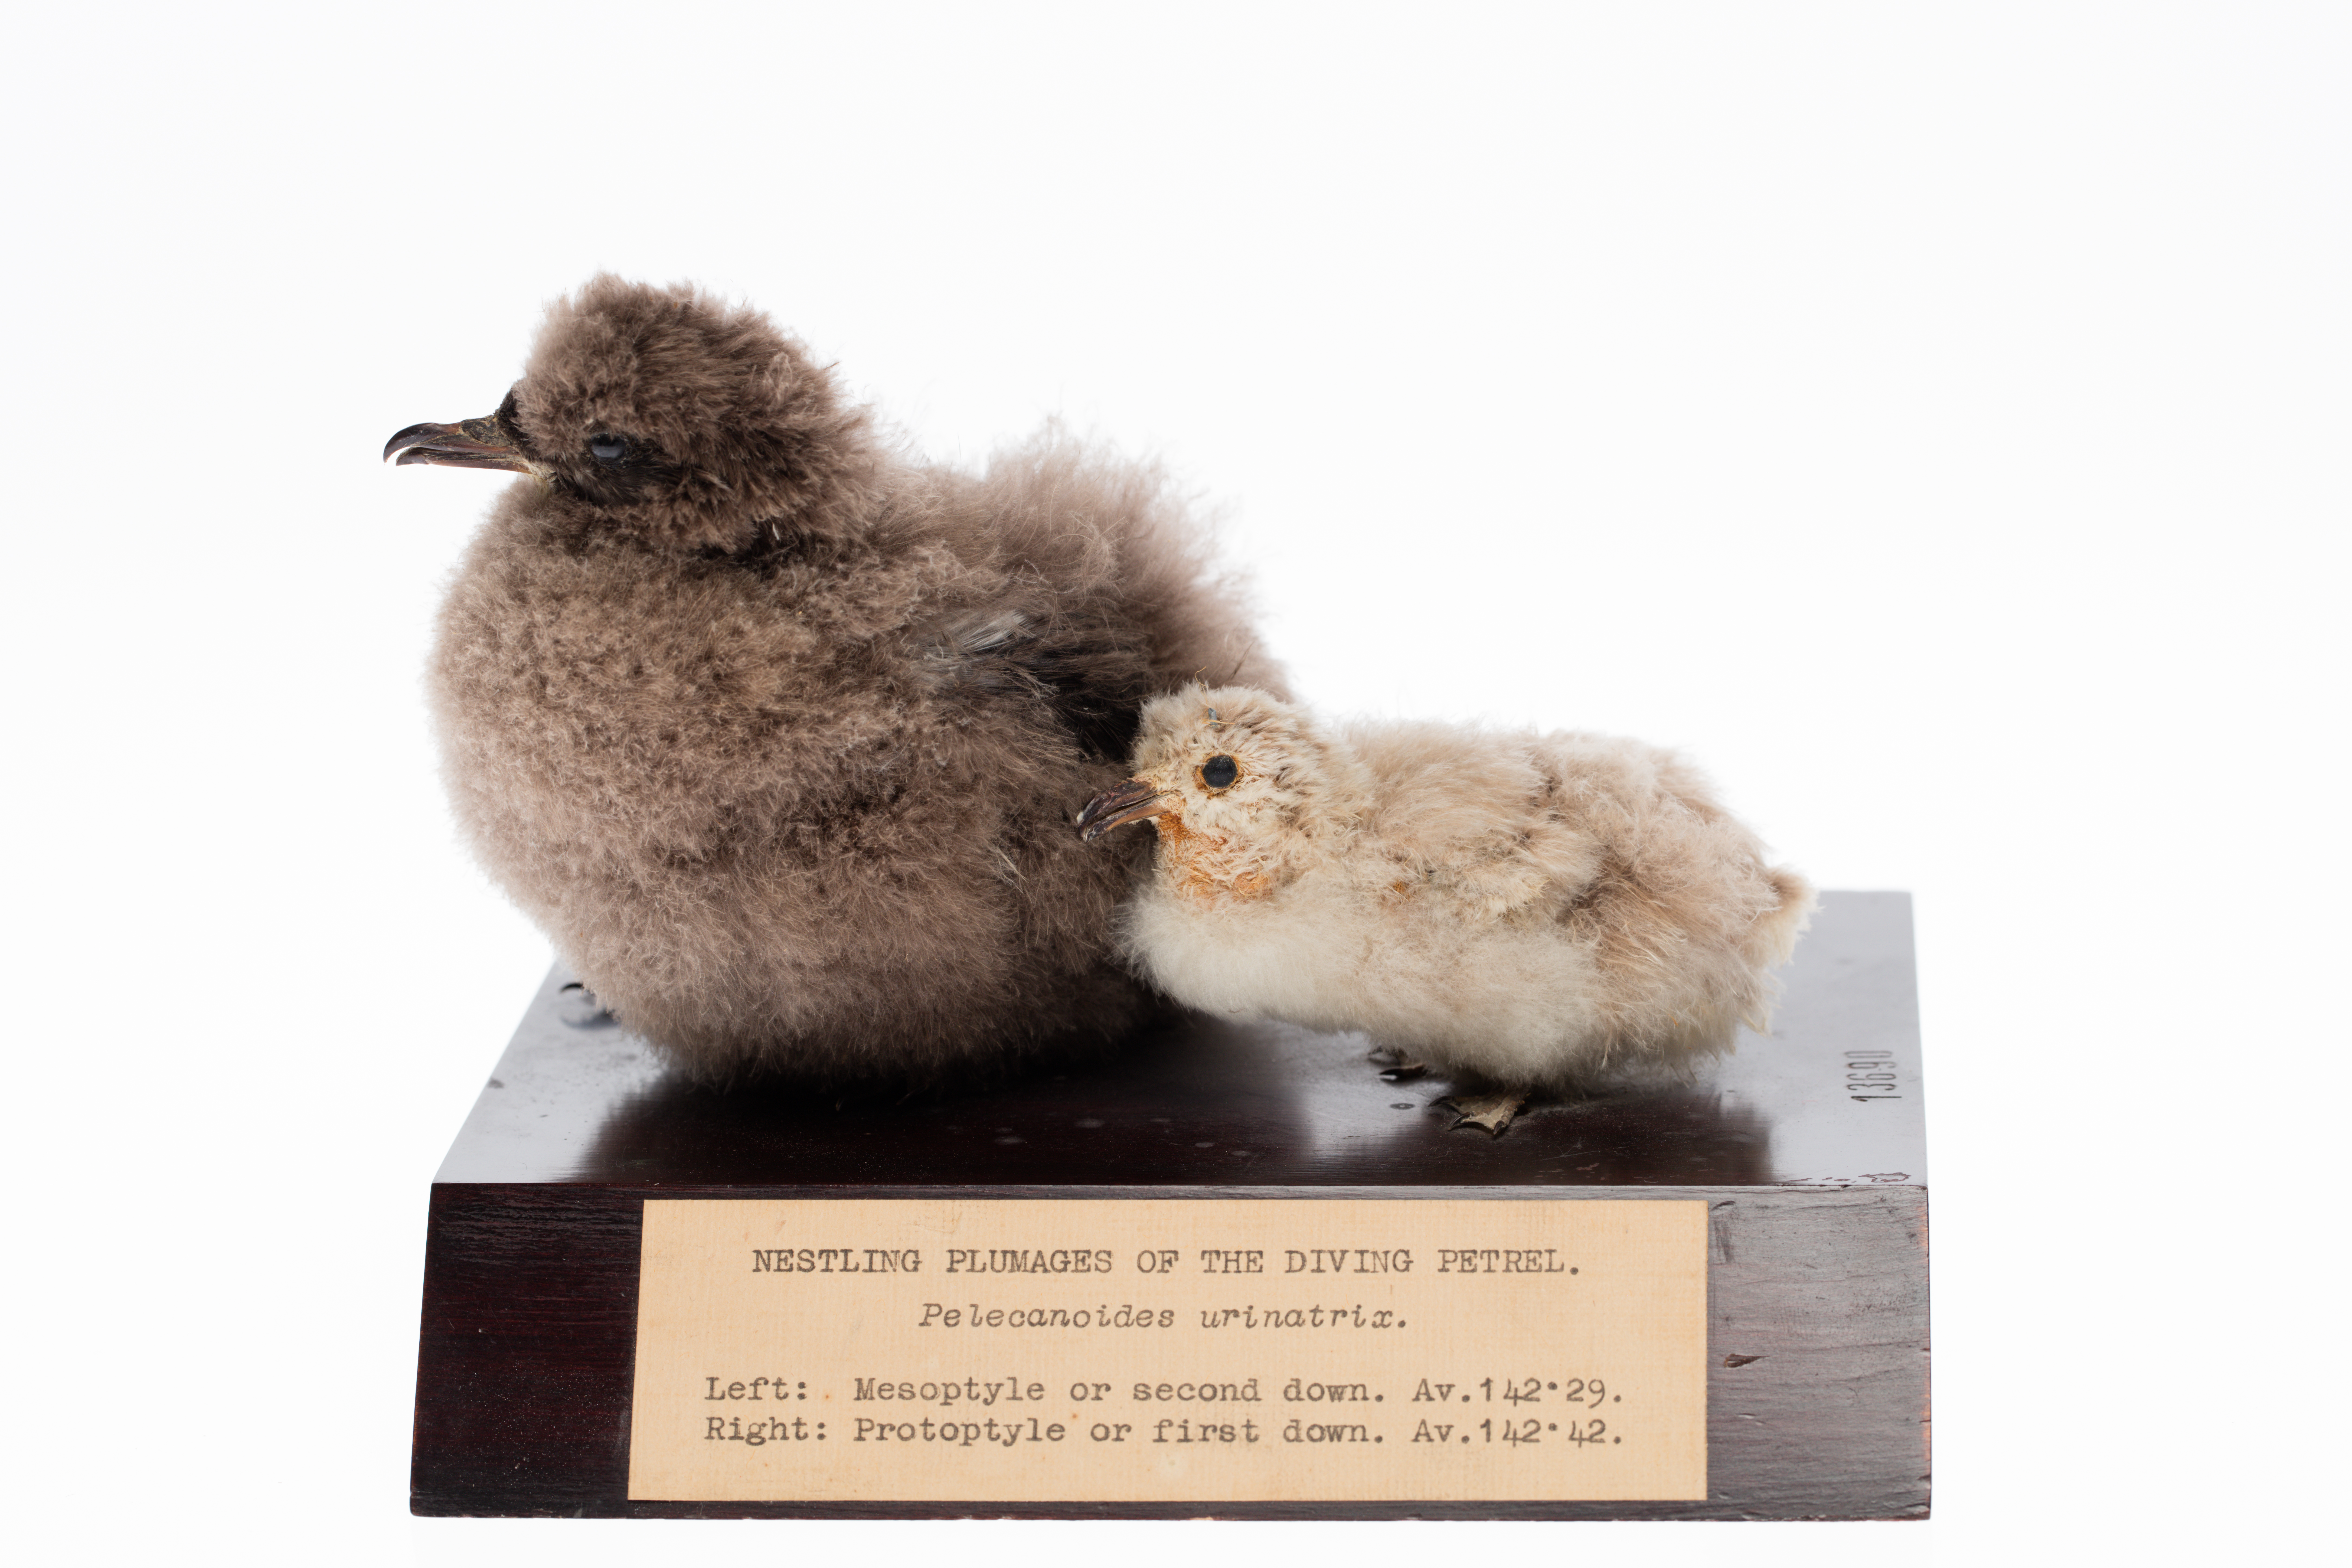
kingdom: Animalia
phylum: Chordata
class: Aves
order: Procellariiformes
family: Pelecanoididae
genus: Pelecanoides
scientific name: Pelecanoides urinatrix
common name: Common diving-petrel
